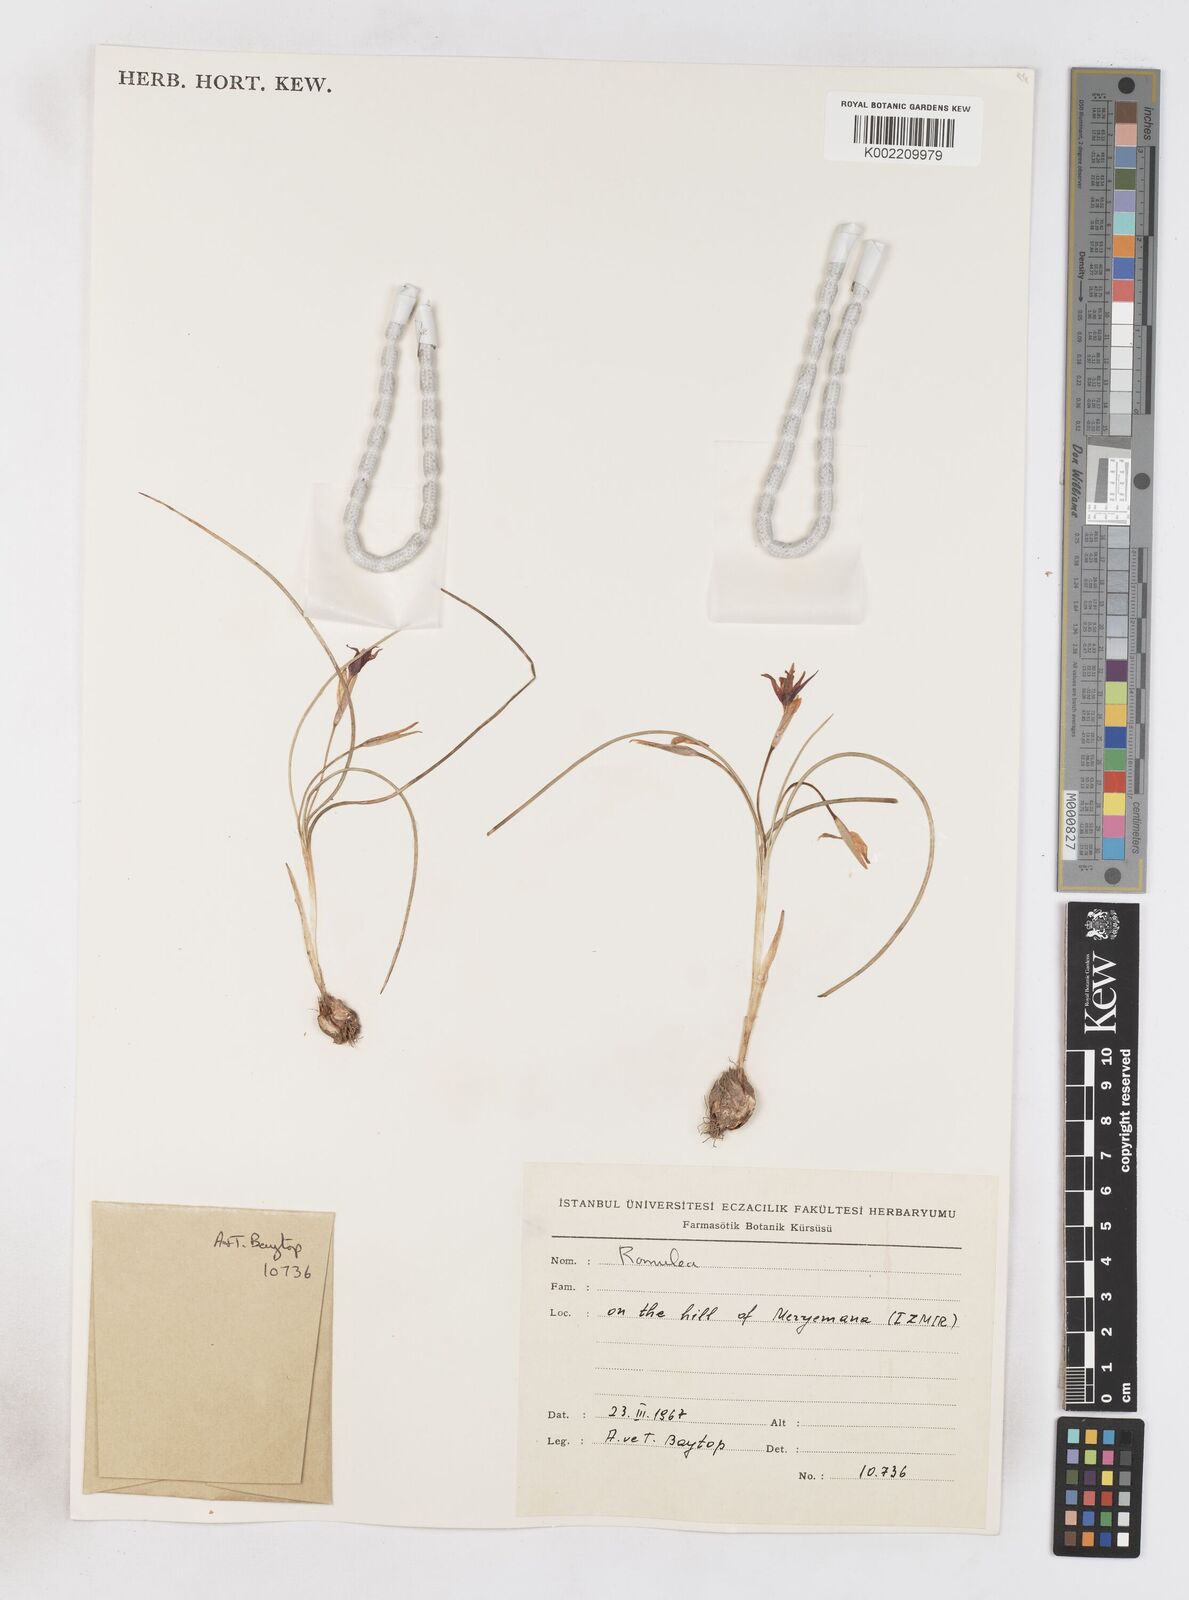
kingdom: Plantae
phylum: Tracheophyta
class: Liliopsida
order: Asparagales
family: Iridaceae
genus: Romulea
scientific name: Romulea tempskyana
